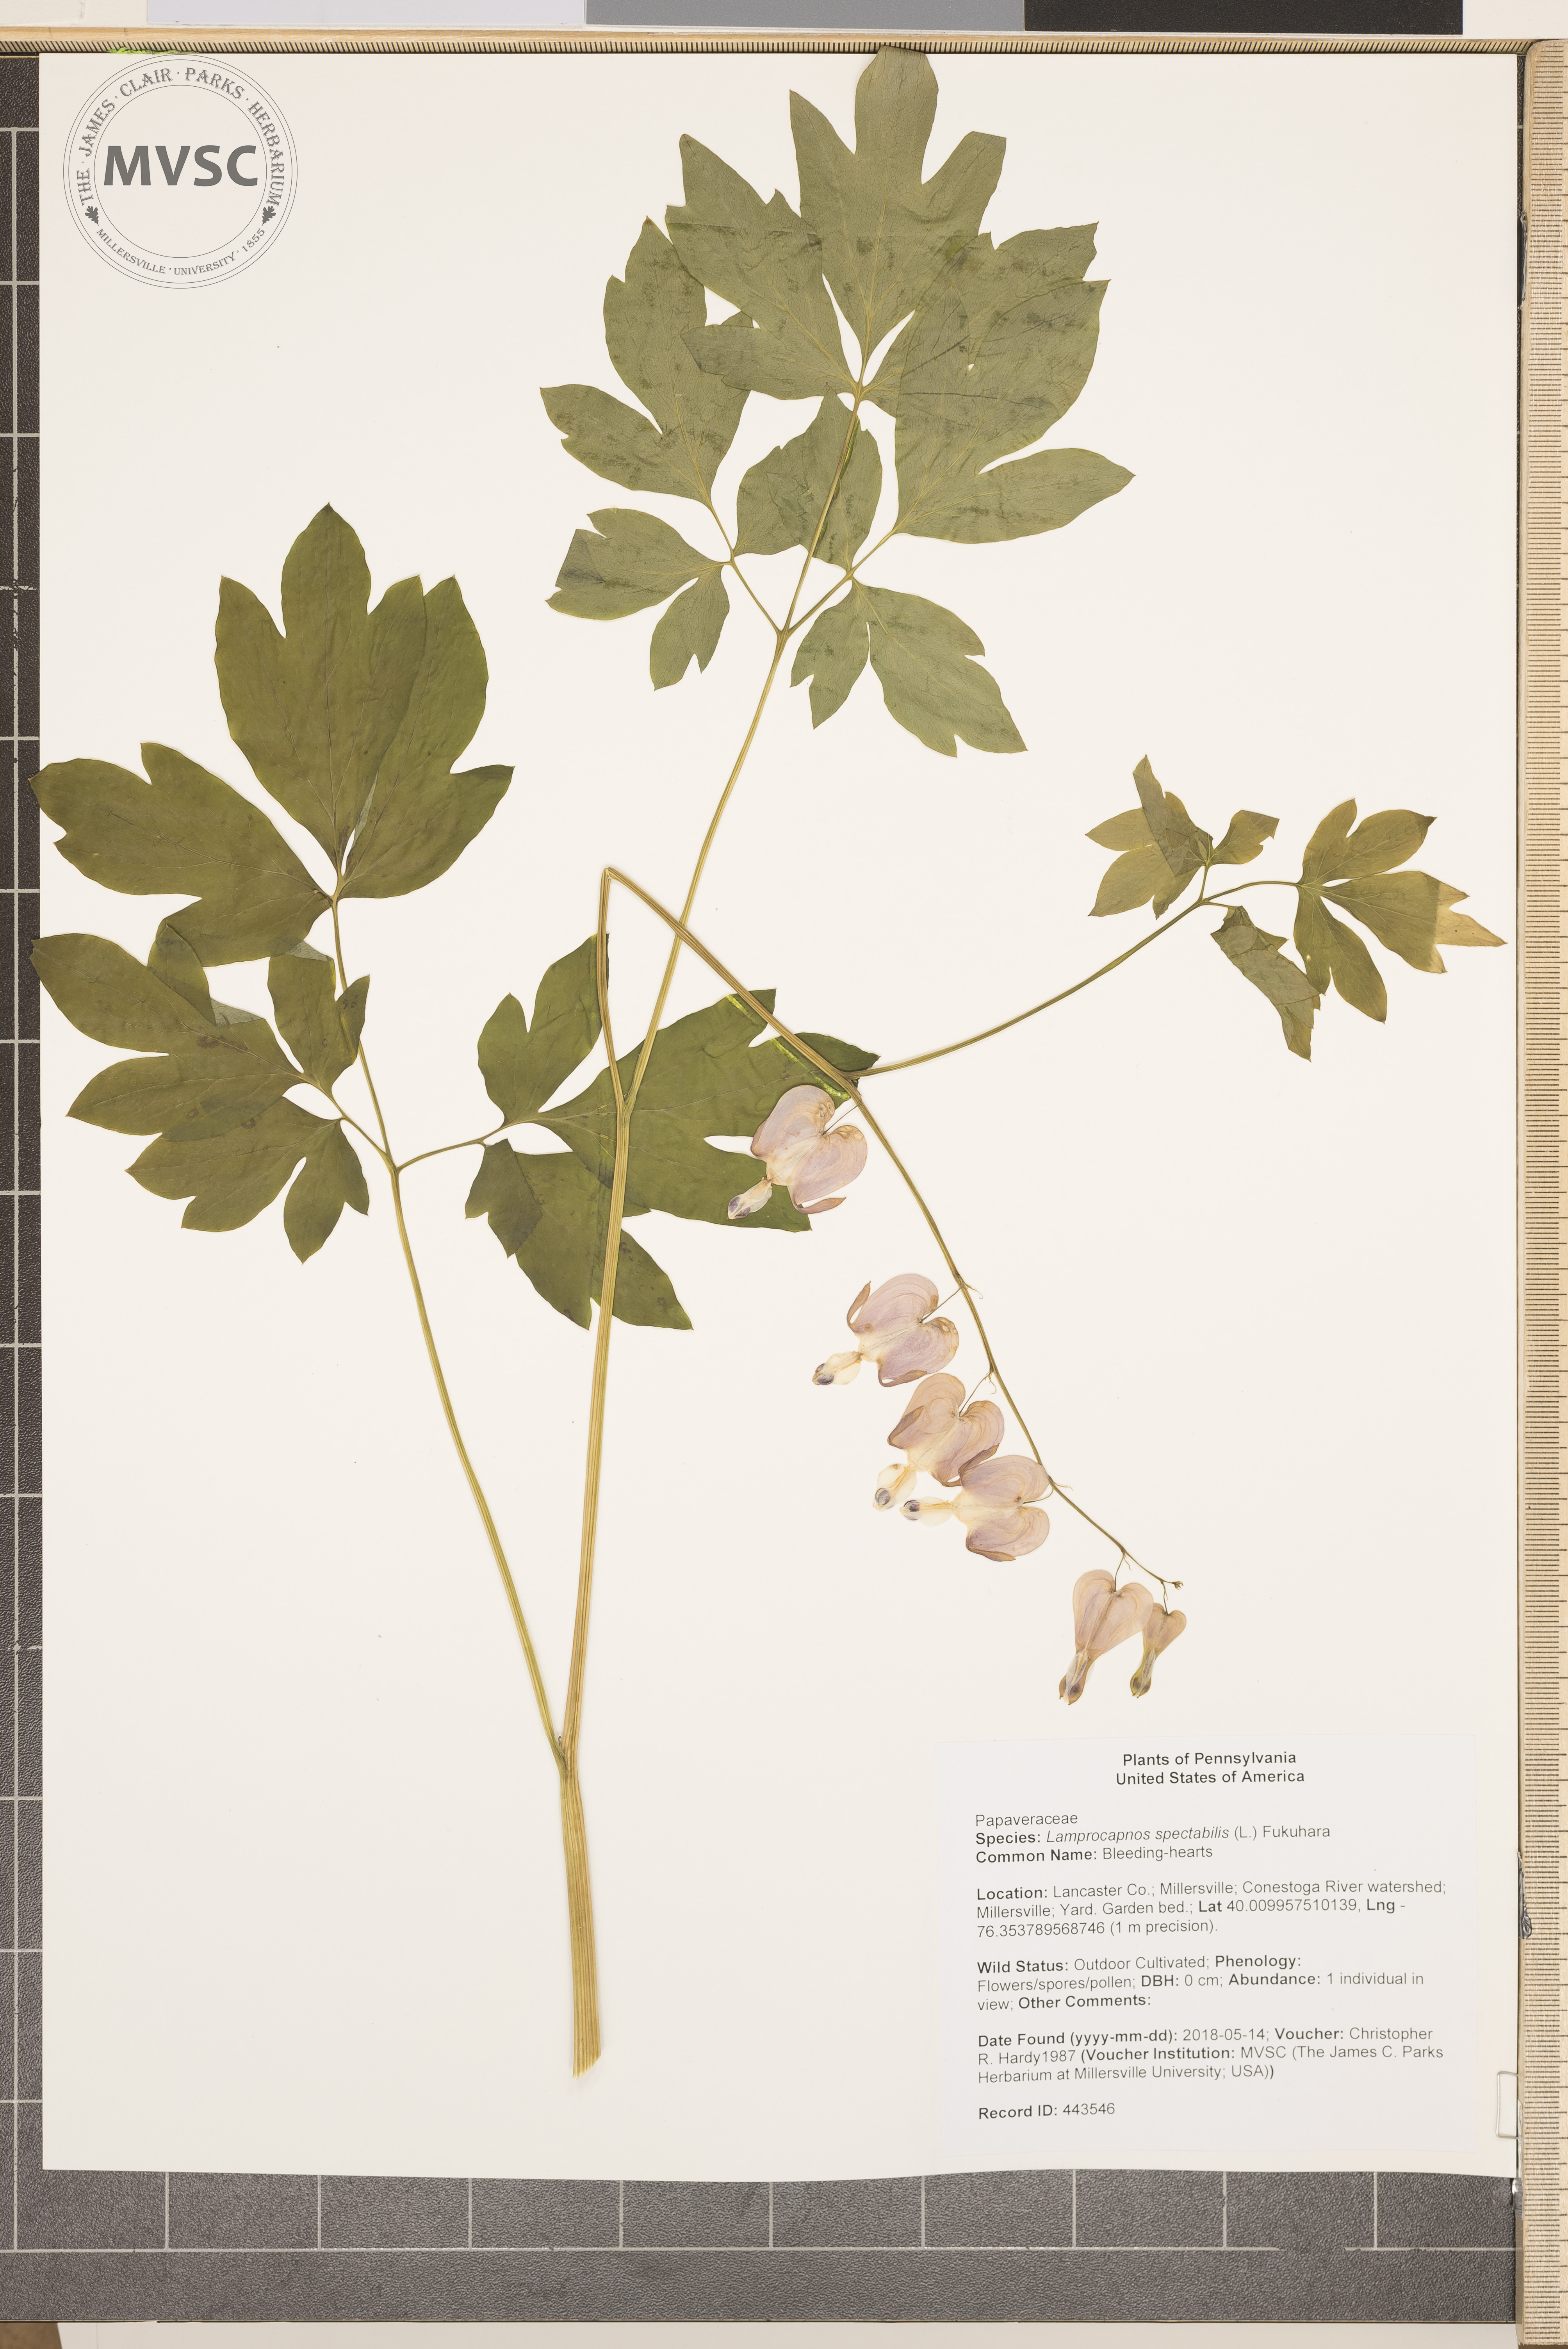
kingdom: Plantae
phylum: Tracheophyta
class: Magnoliopsida
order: Ranunculales
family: Papaveraceae
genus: Lamprocapnos
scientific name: Lamprocapnos spectabilis
